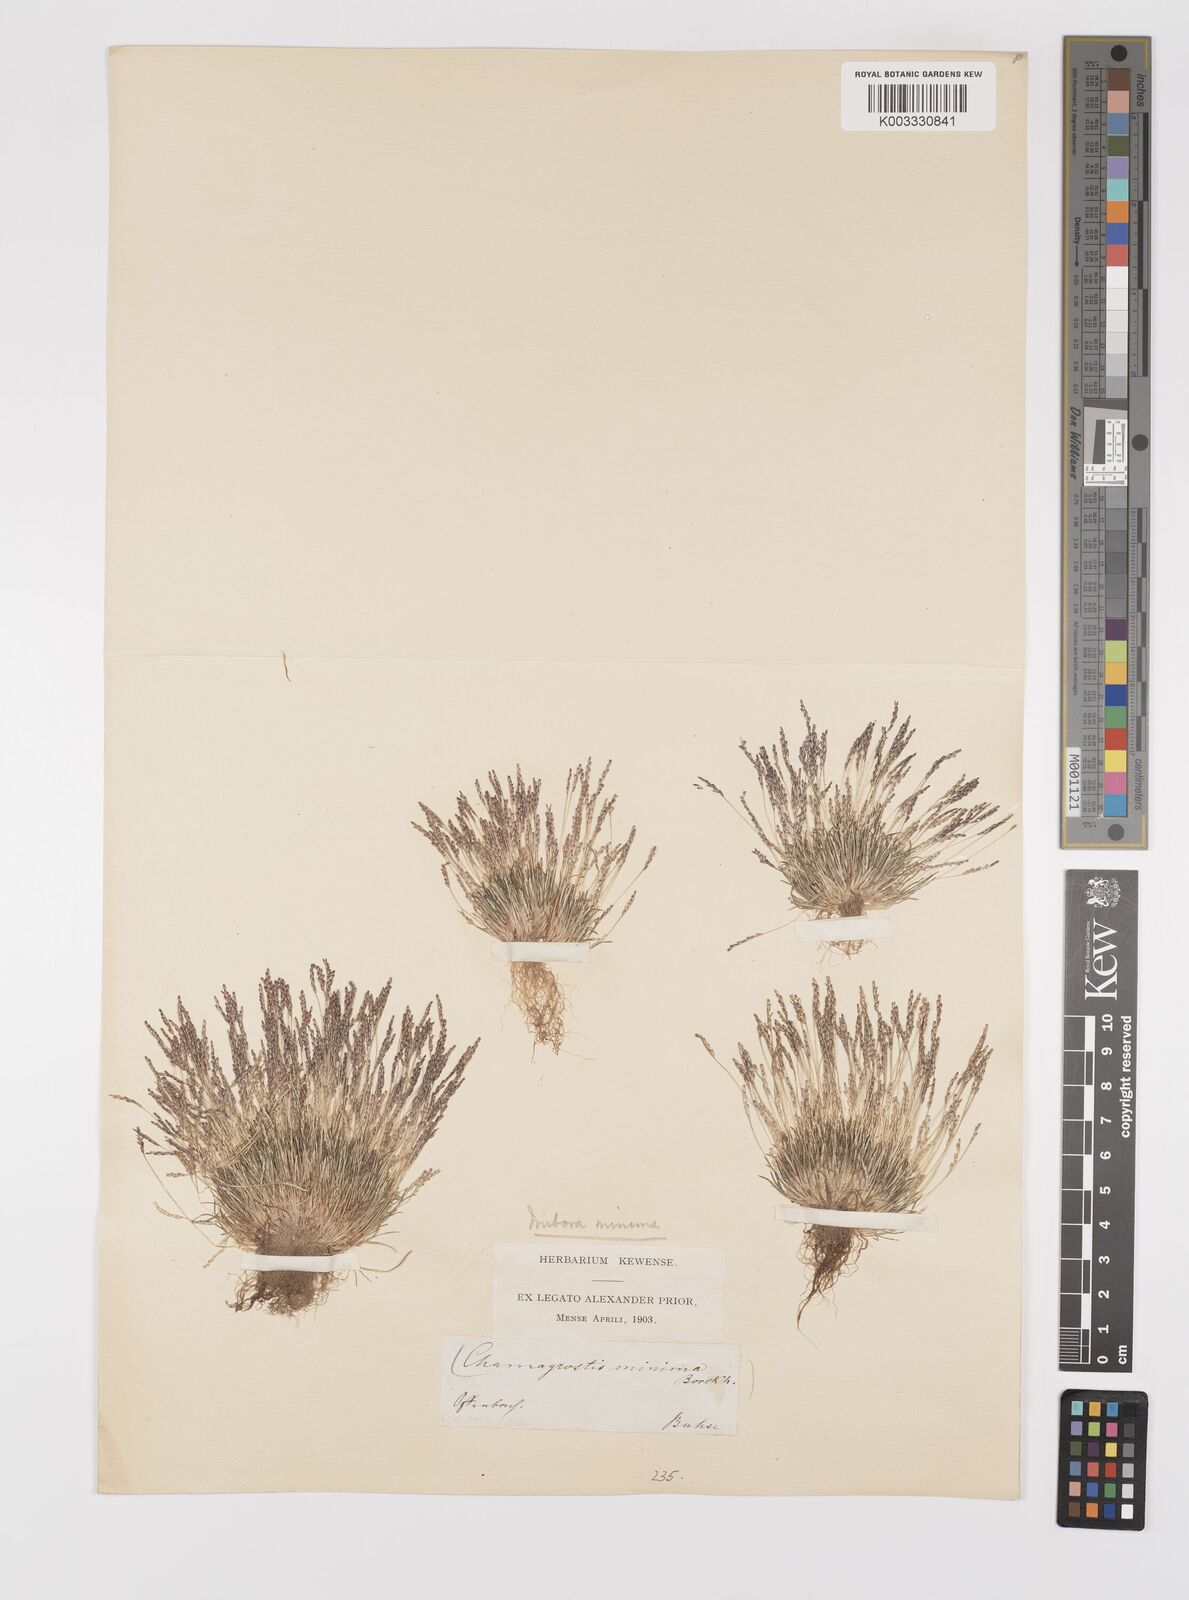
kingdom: Plantae
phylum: Tracheophyta
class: Liliopsida
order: Poales
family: Poaceae
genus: Mibora
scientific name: Mibora minima
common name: Early sand-grass
